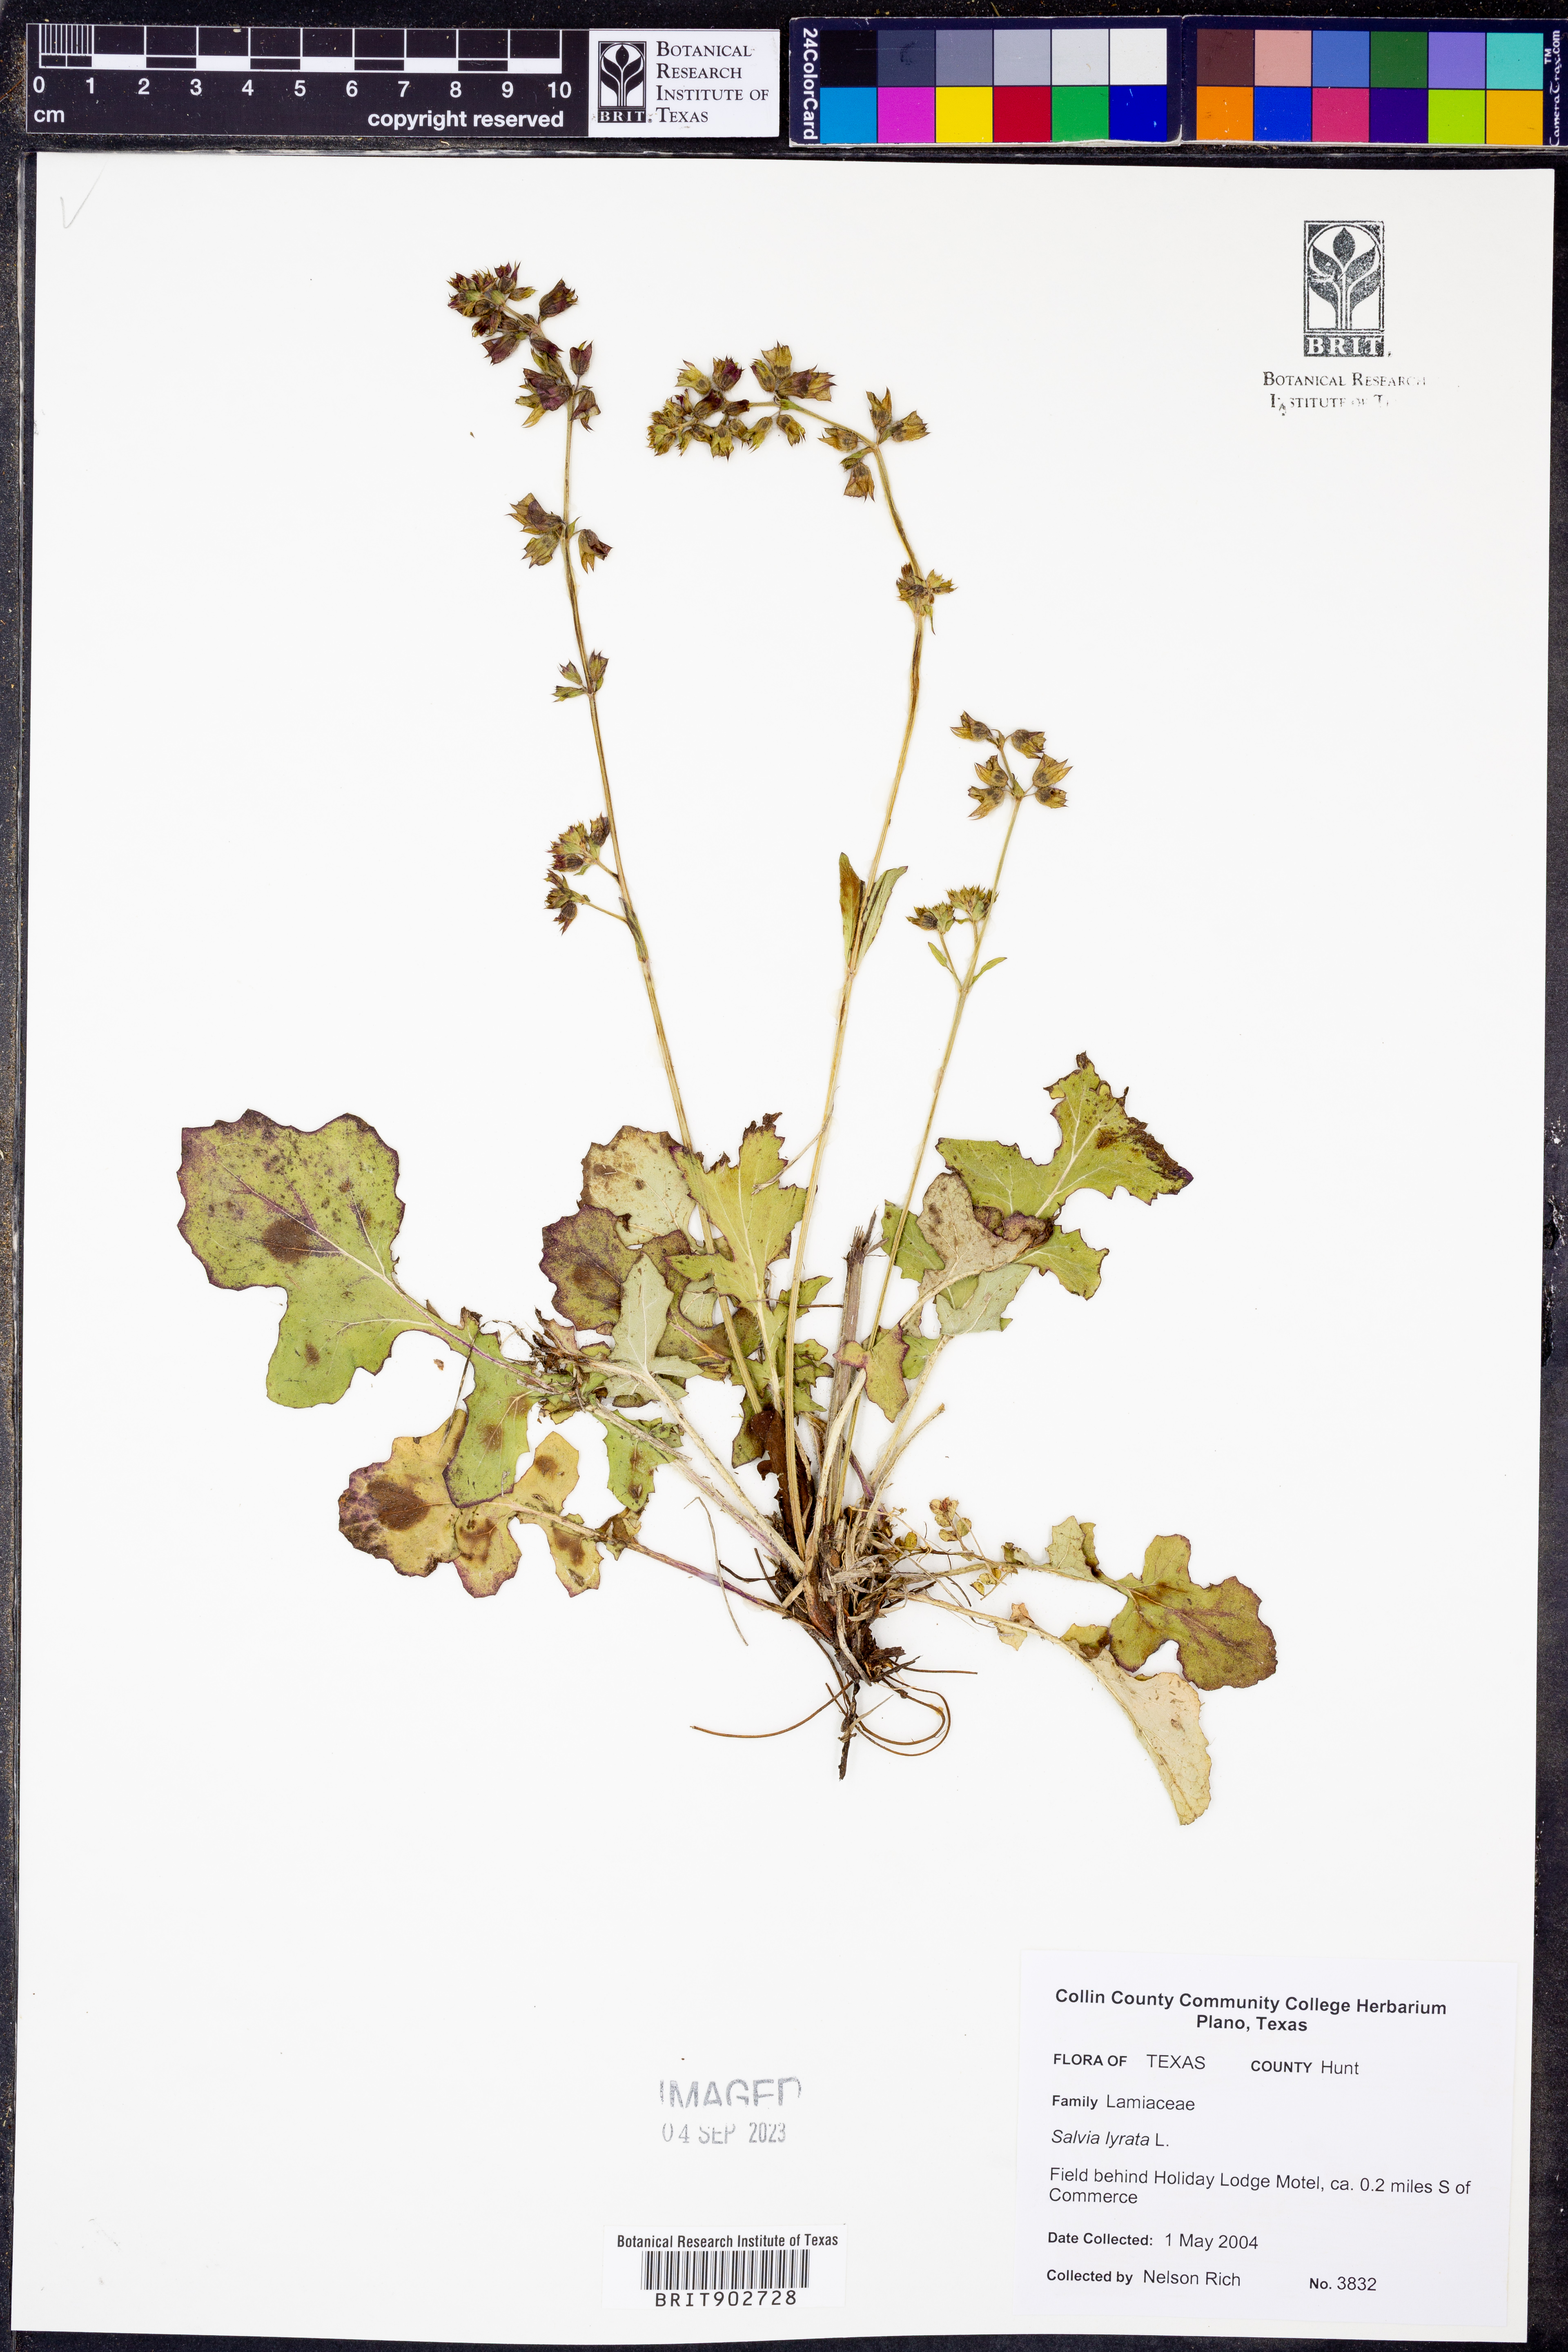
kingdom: Plantae
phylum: Tracheophyta
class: Magnoliopsida
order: Lamiales
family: Lamiaceae
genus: Salvia
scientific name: Salvia lyrata
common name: Cancerweed
